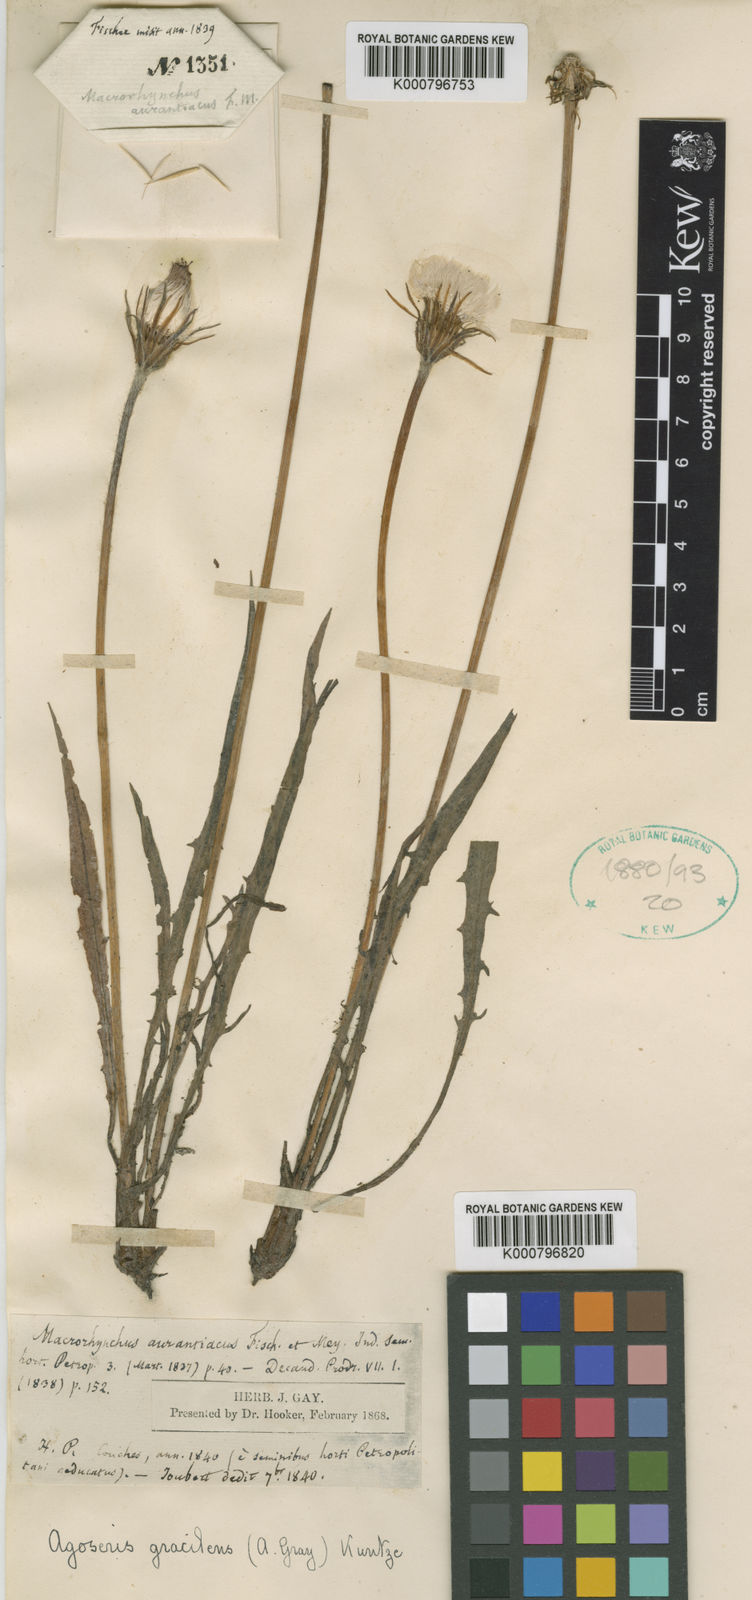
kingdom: Plantae
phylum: Tracheophyta
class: Magnoliopsida
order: Asterales
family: Asteraceae
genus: Agoseris
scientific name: Agoseris aurantiaca
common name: Mountain agoseris
